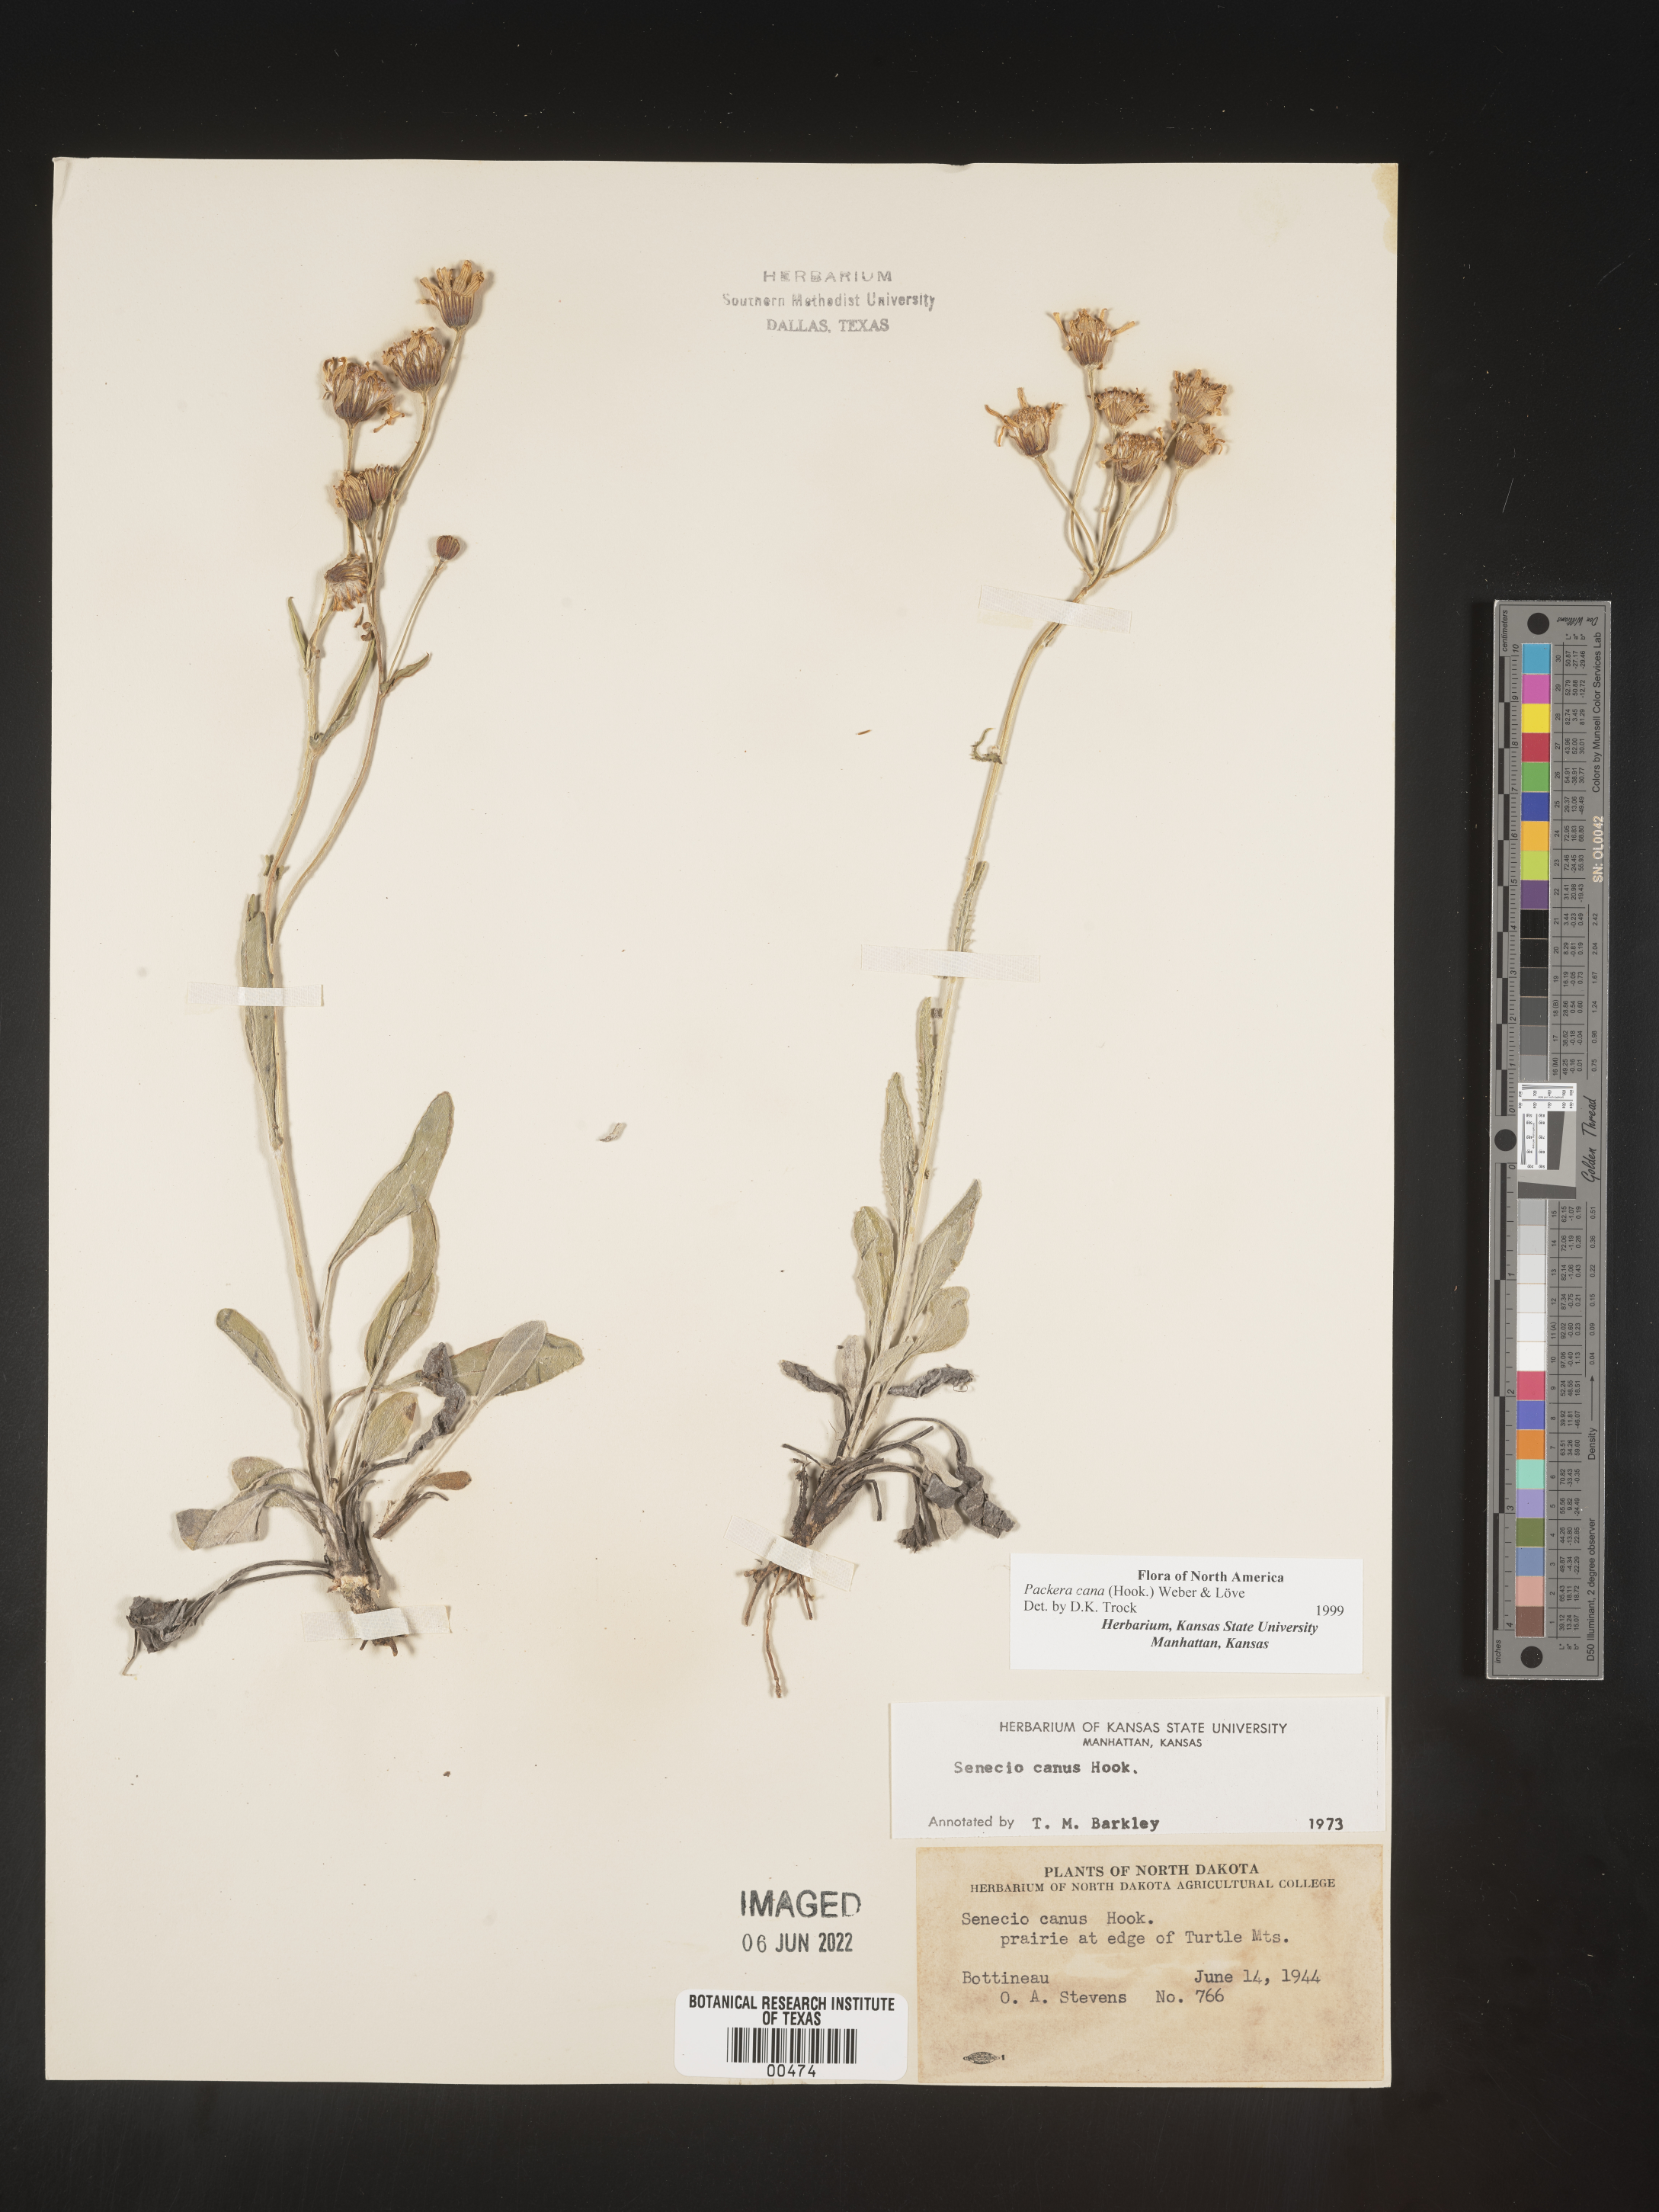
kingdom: Plantae
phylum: Tracheophyta
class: Magnoliopsida
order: Asterales
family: Asteraceae
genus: Packera
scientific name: Packera cana
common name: Woolly groundsel
